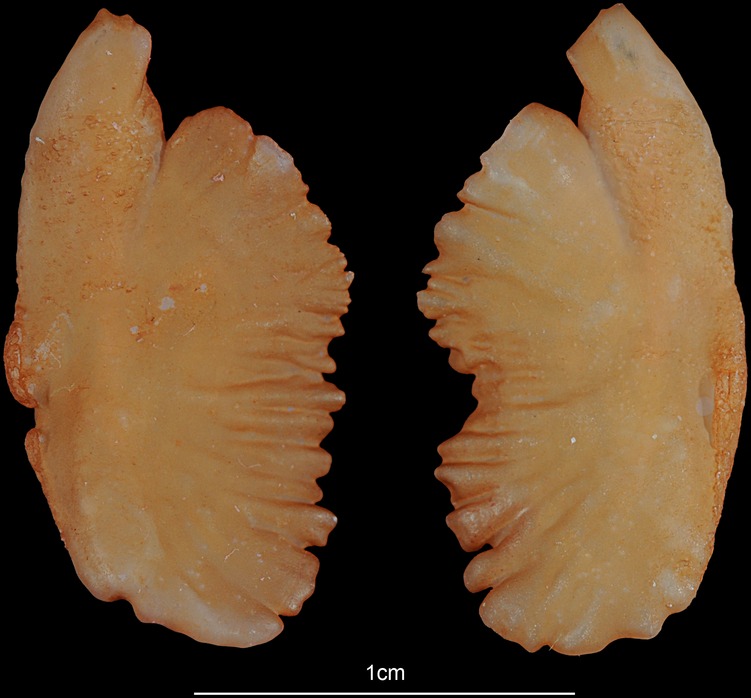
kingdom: Animalia
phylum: Chordata
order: Perciformes
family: Percidae
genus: Sander
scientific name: Sander lucioperca
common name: Pikeperch
